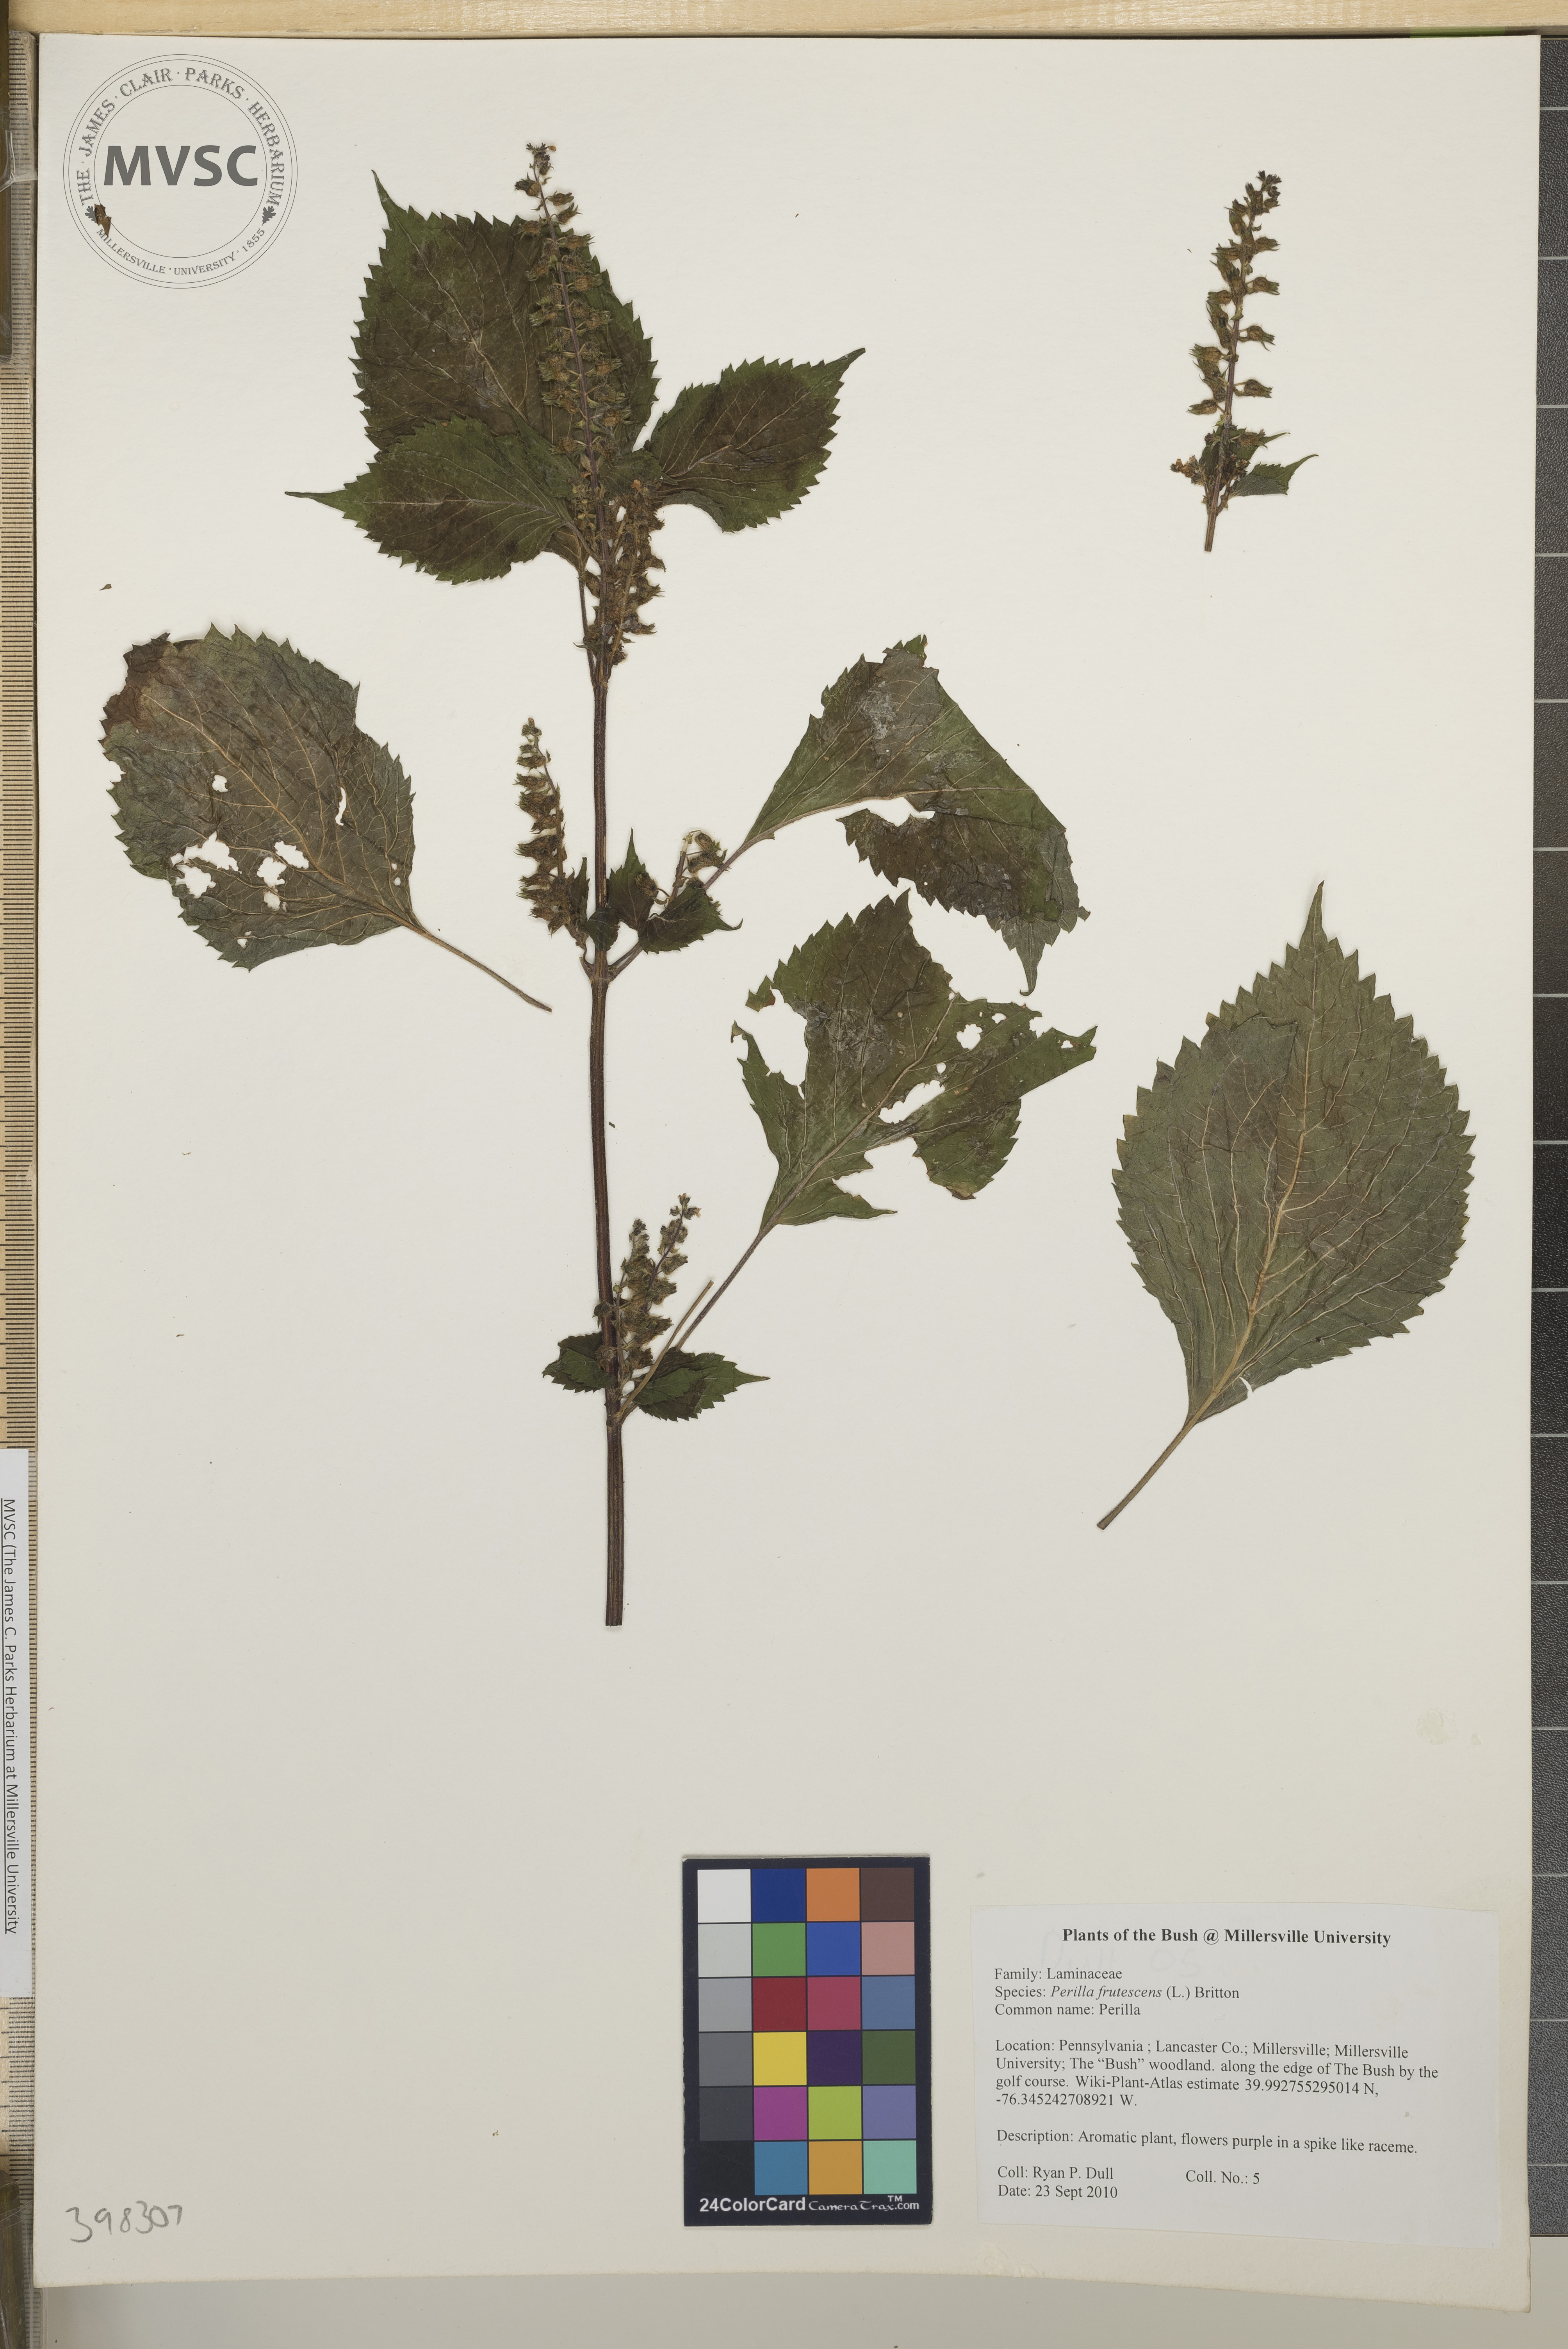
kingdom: Plantae
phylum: Tracheophyta
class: Magnoliopsida
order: Lamiales
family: Lamiaceae
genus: Perilla
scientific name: Perilla frutescens
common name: Perilla
